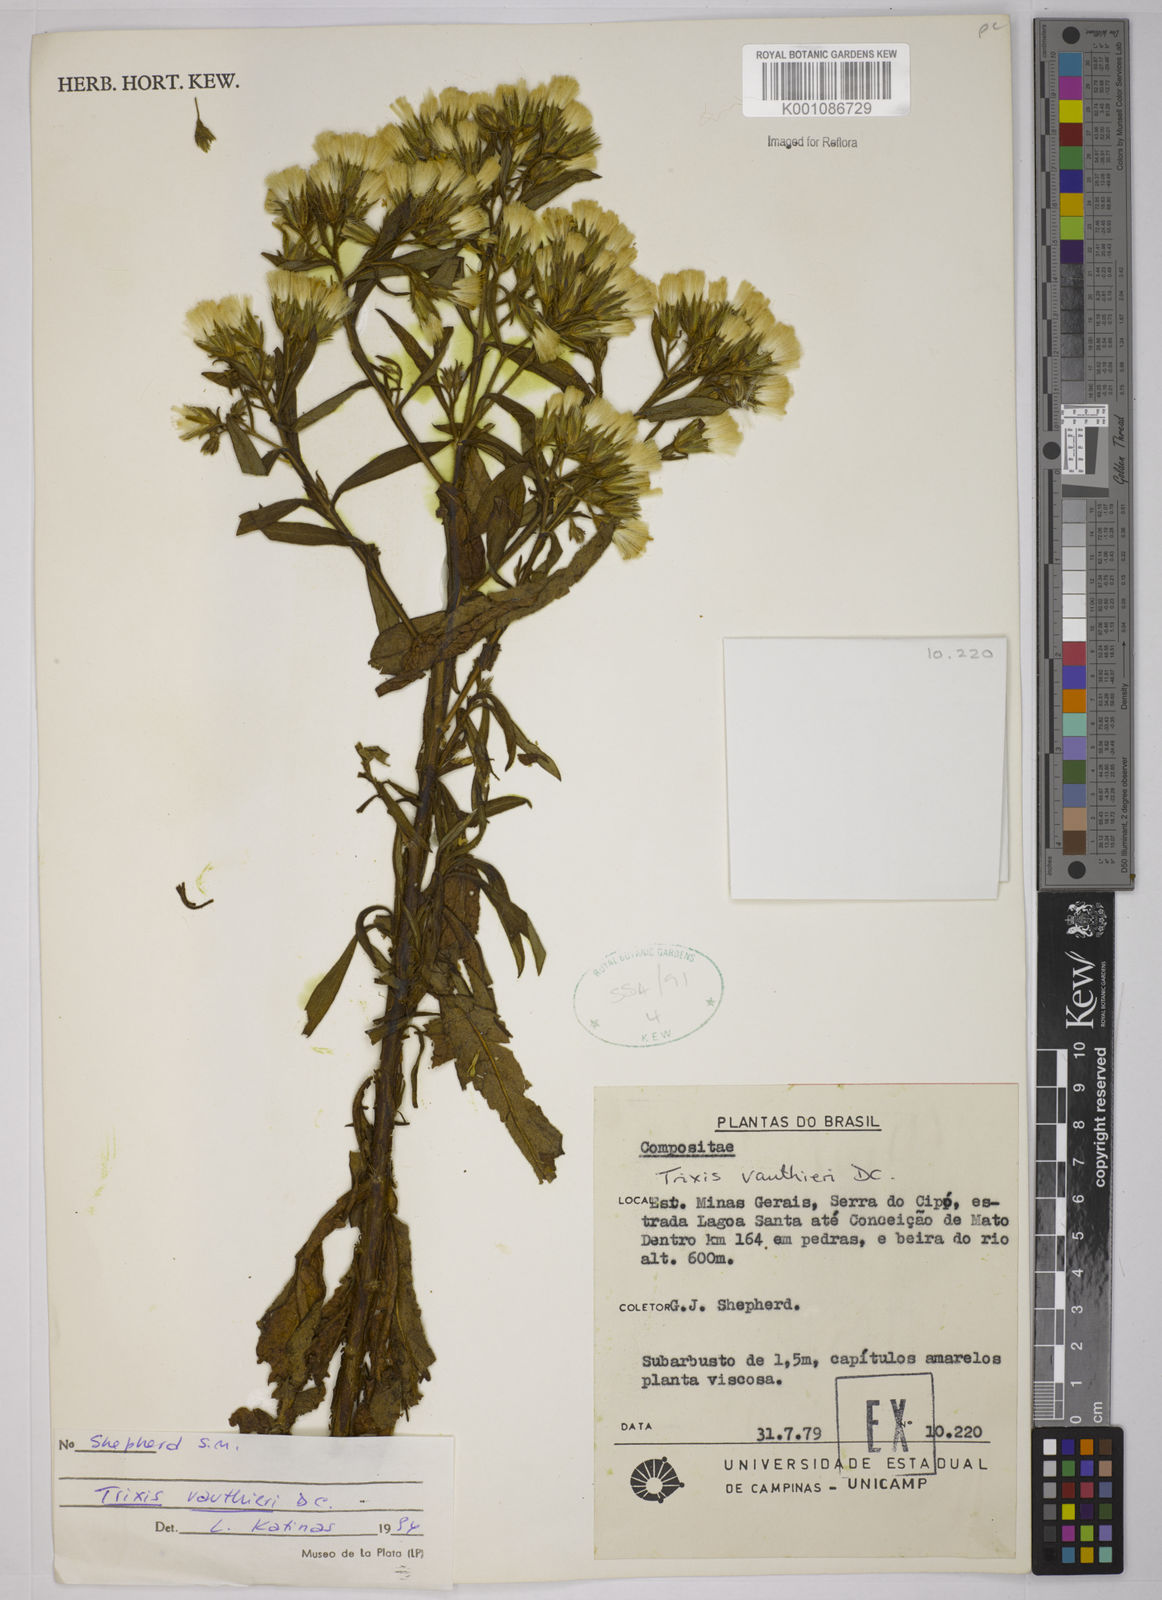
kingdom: Plantae
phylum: Tracheophyta
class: Magnoliopsida
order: Asterales
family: Asteraceae
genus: Trixis
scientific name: Trixis vauthieri
